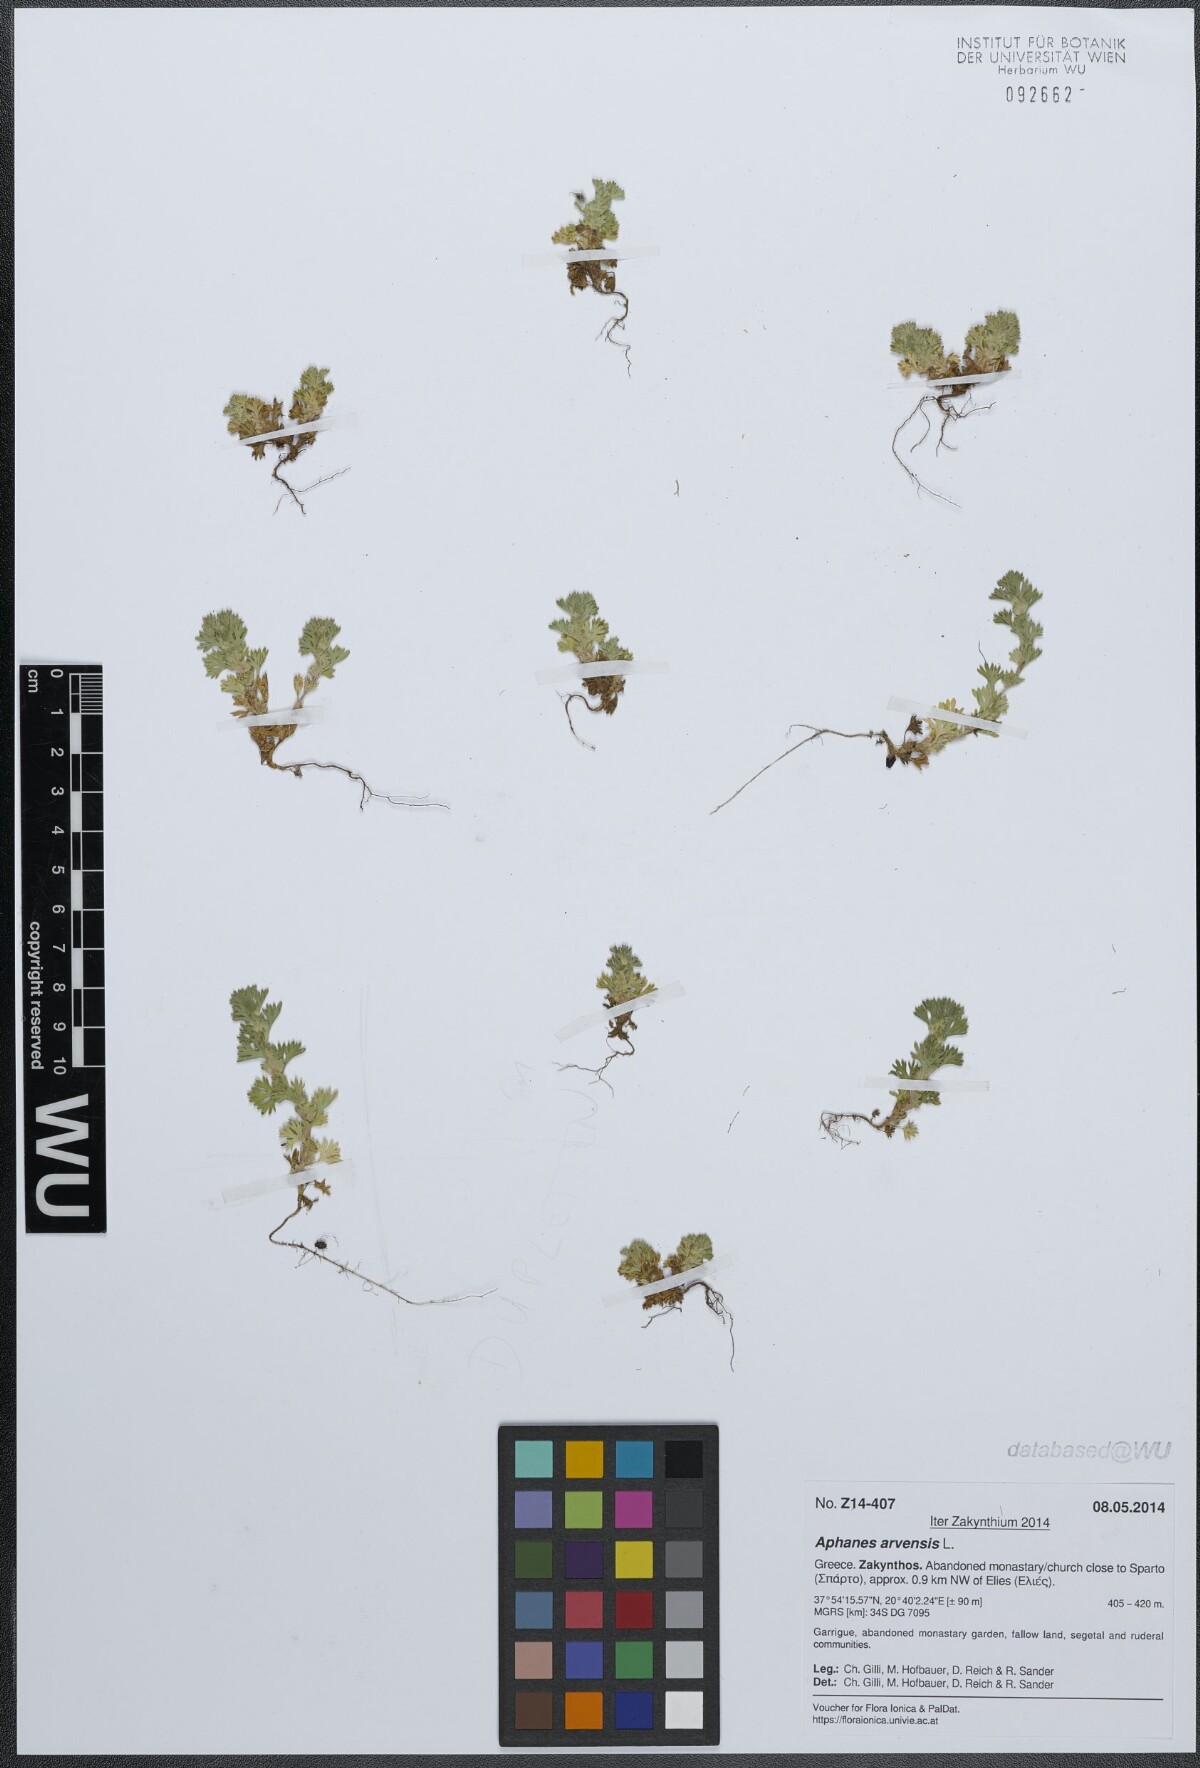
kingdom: Plantae
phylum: Tracheophyta
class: Magnoliopsida
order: Rosales
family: Rosaceae
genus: Aphanes
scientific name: Aphanes arvensis
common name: Parsley-piert
